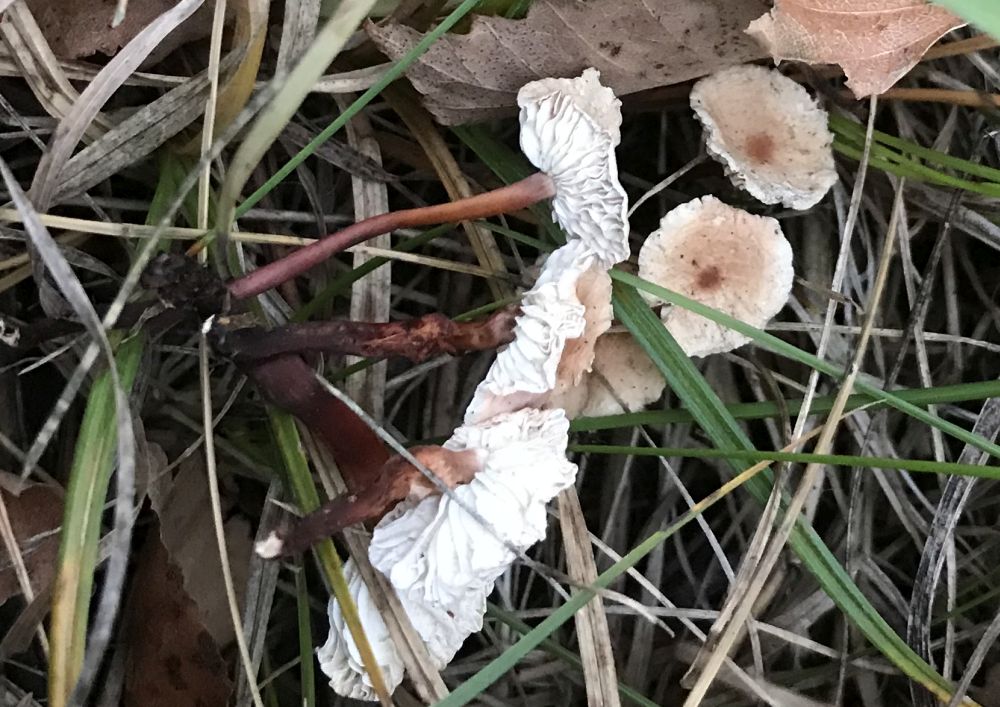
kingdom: Fungi
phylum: Basidiomycota
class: Agaricomycetes
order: Agaricales
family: Omphalotaceae
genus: Mycetinis
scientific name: Mycetinis scorodonius
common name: lille løghat
